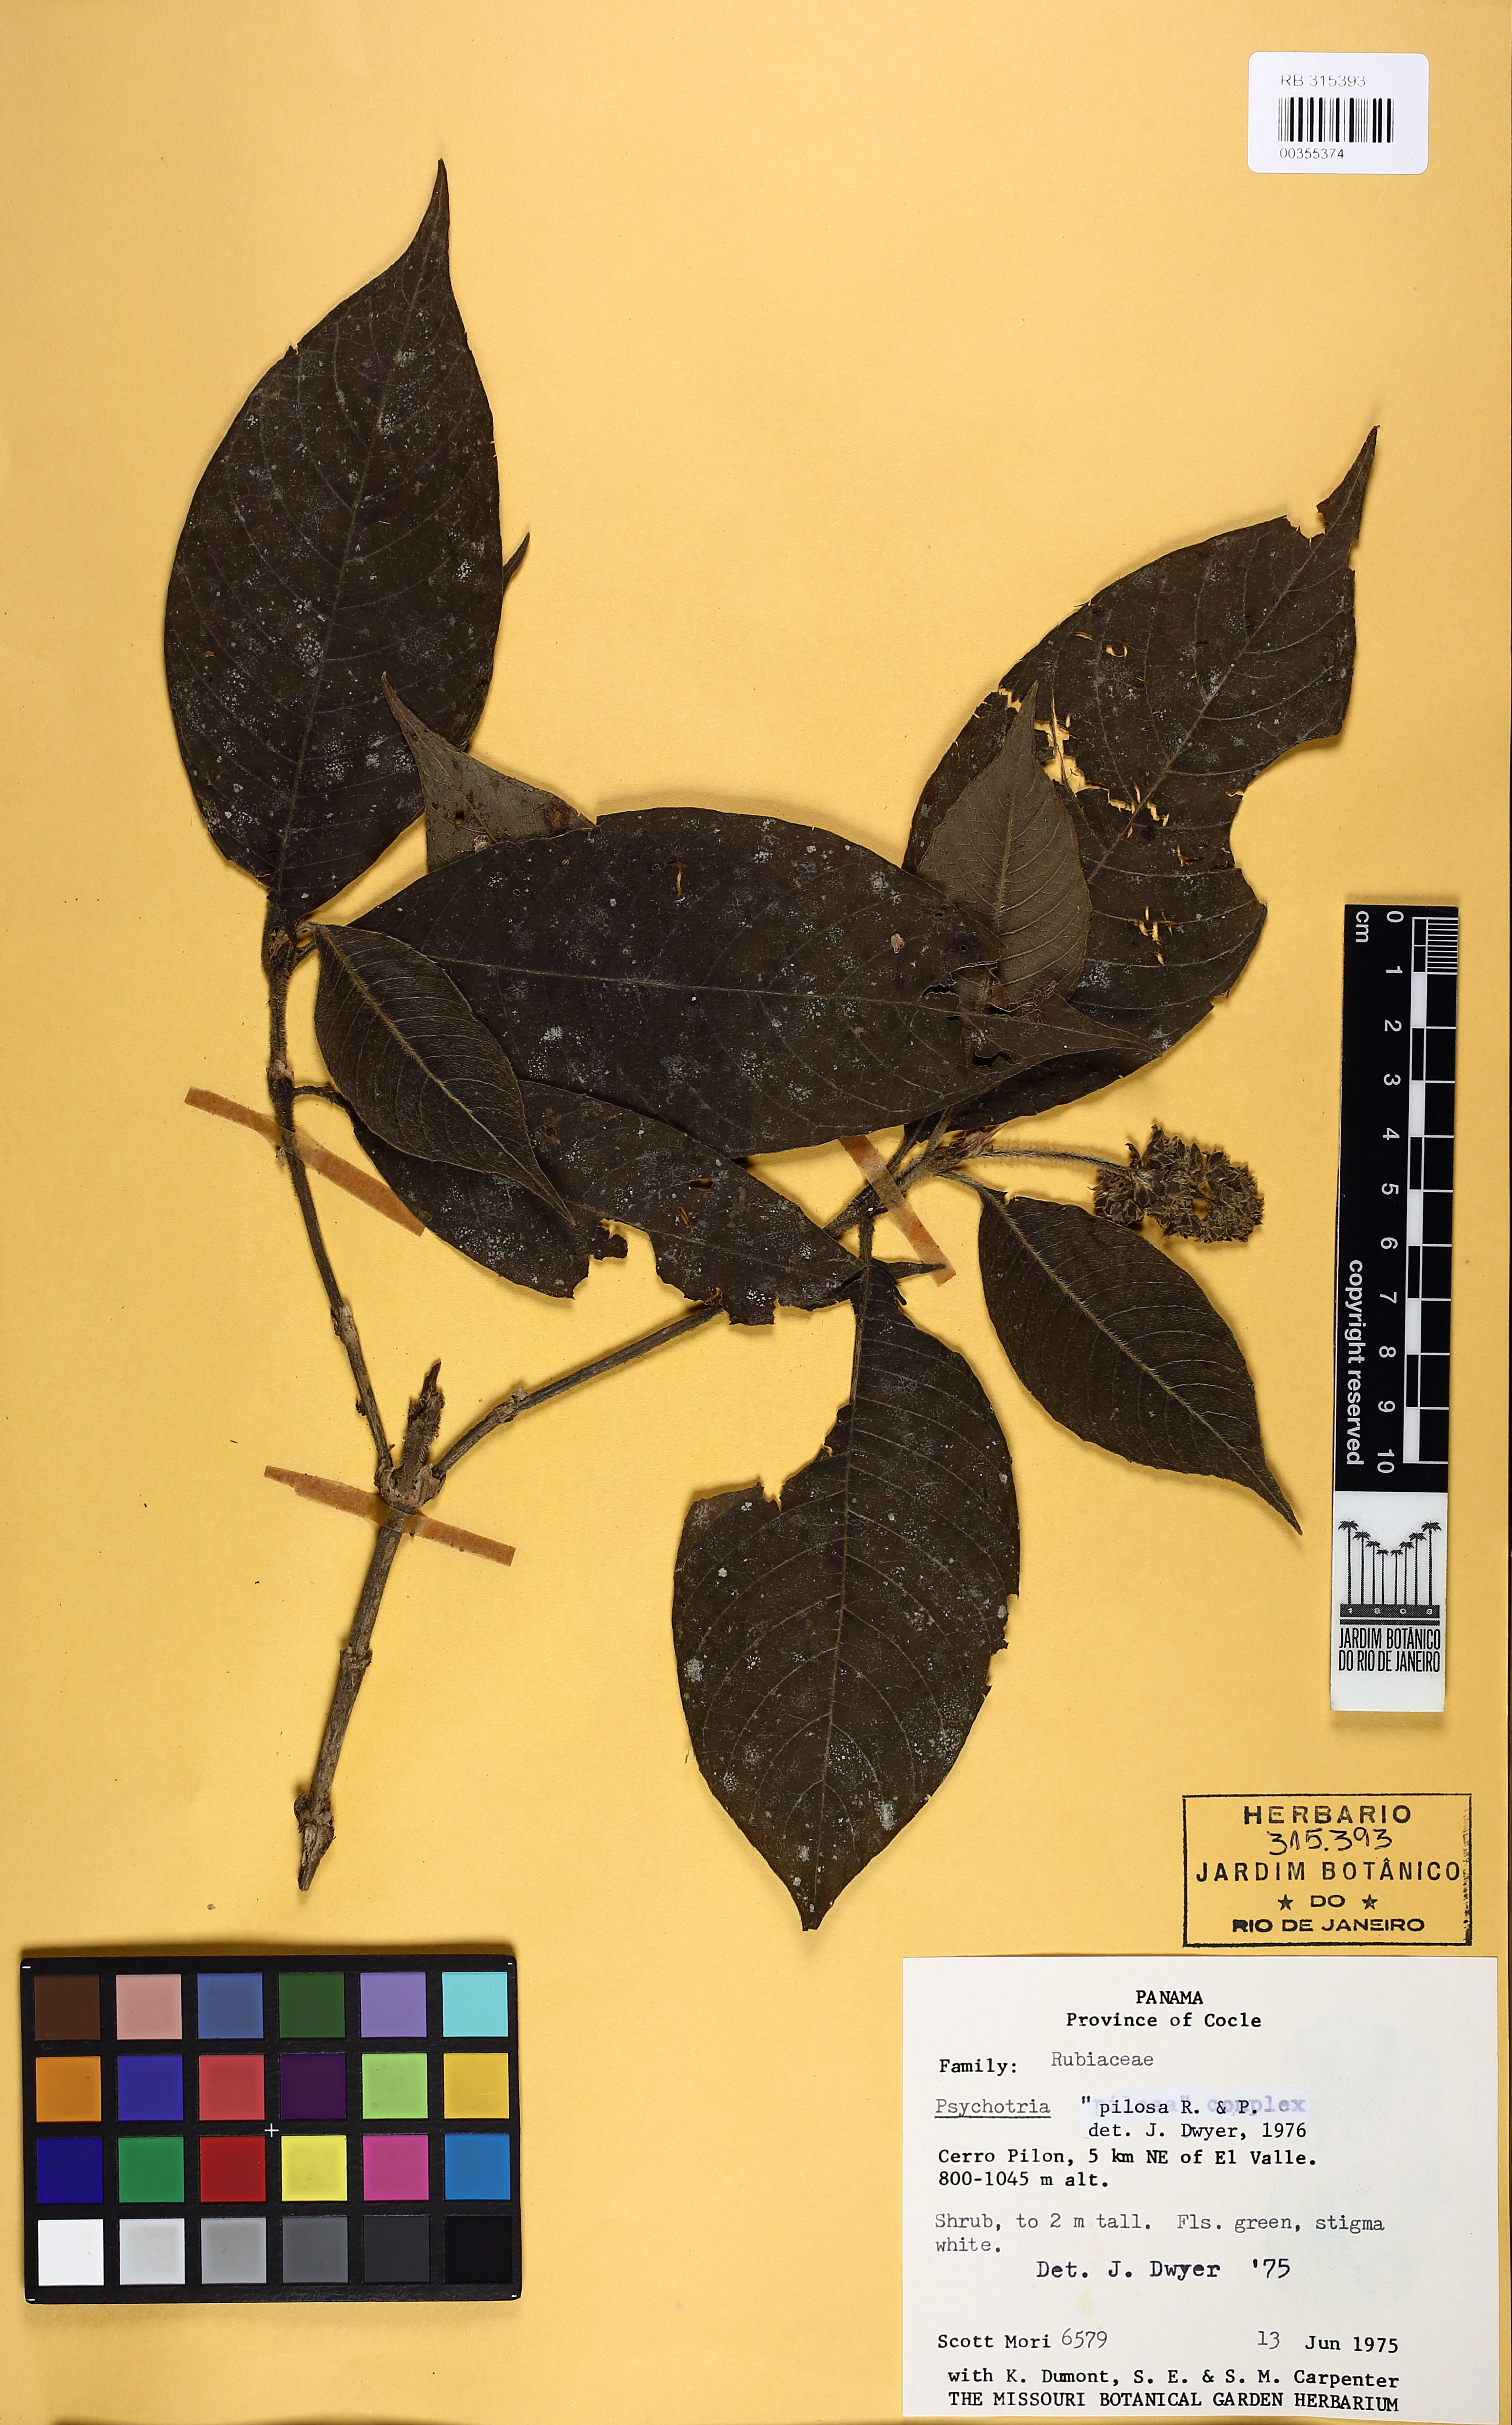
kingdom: Plantae
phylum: Tracheophyta
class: Magnoliopsida
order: Gentianales
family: Rubiaceae
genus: Palicourea
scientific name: Palicourea pilosa
